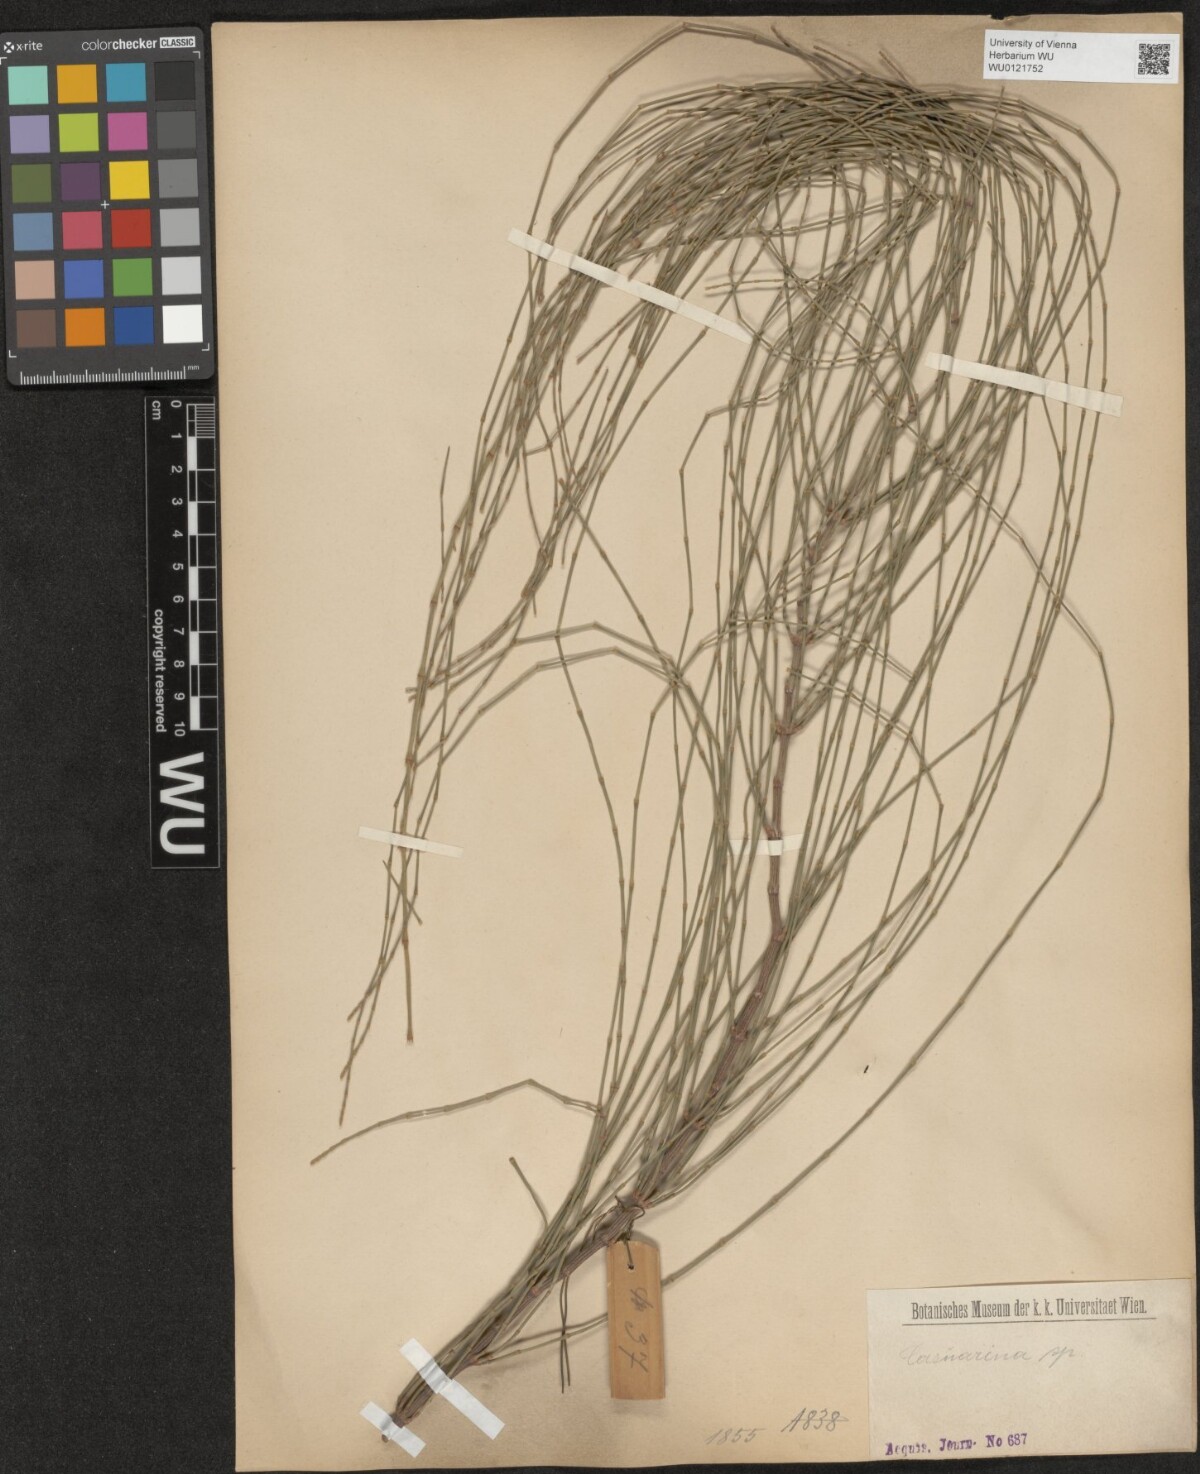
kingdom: Plantae
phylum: Tracheophyta
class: Magnoliopsida
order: Fagales
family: Casuarinaceae
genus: Casuarina
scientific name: Casuarina
